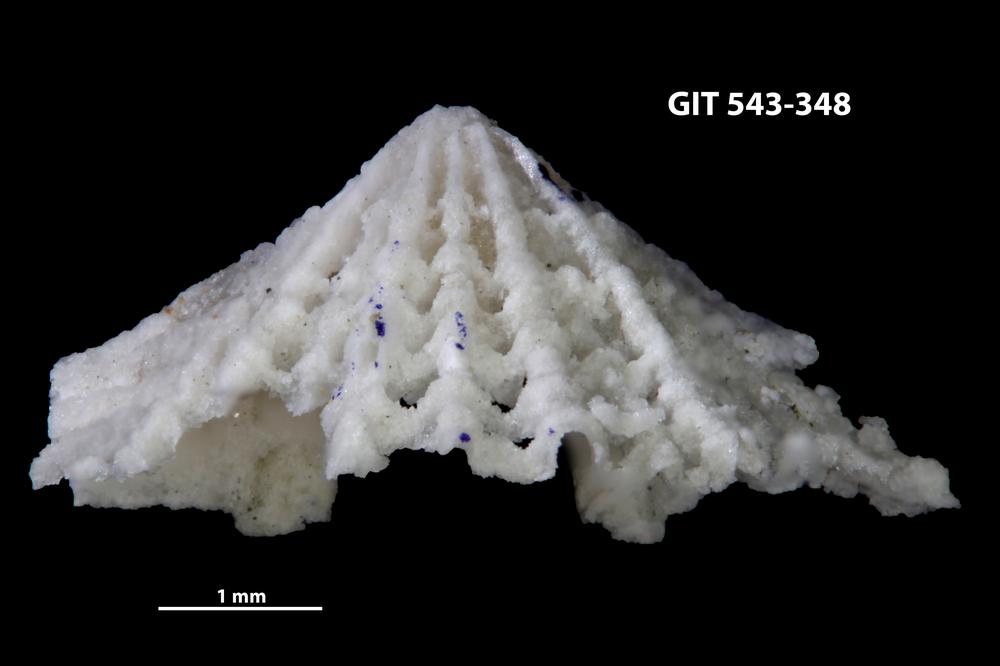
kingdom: Animalia
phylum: Brachiopoda
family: Kullervoidae
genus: Kullervo
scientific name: Kullervo
